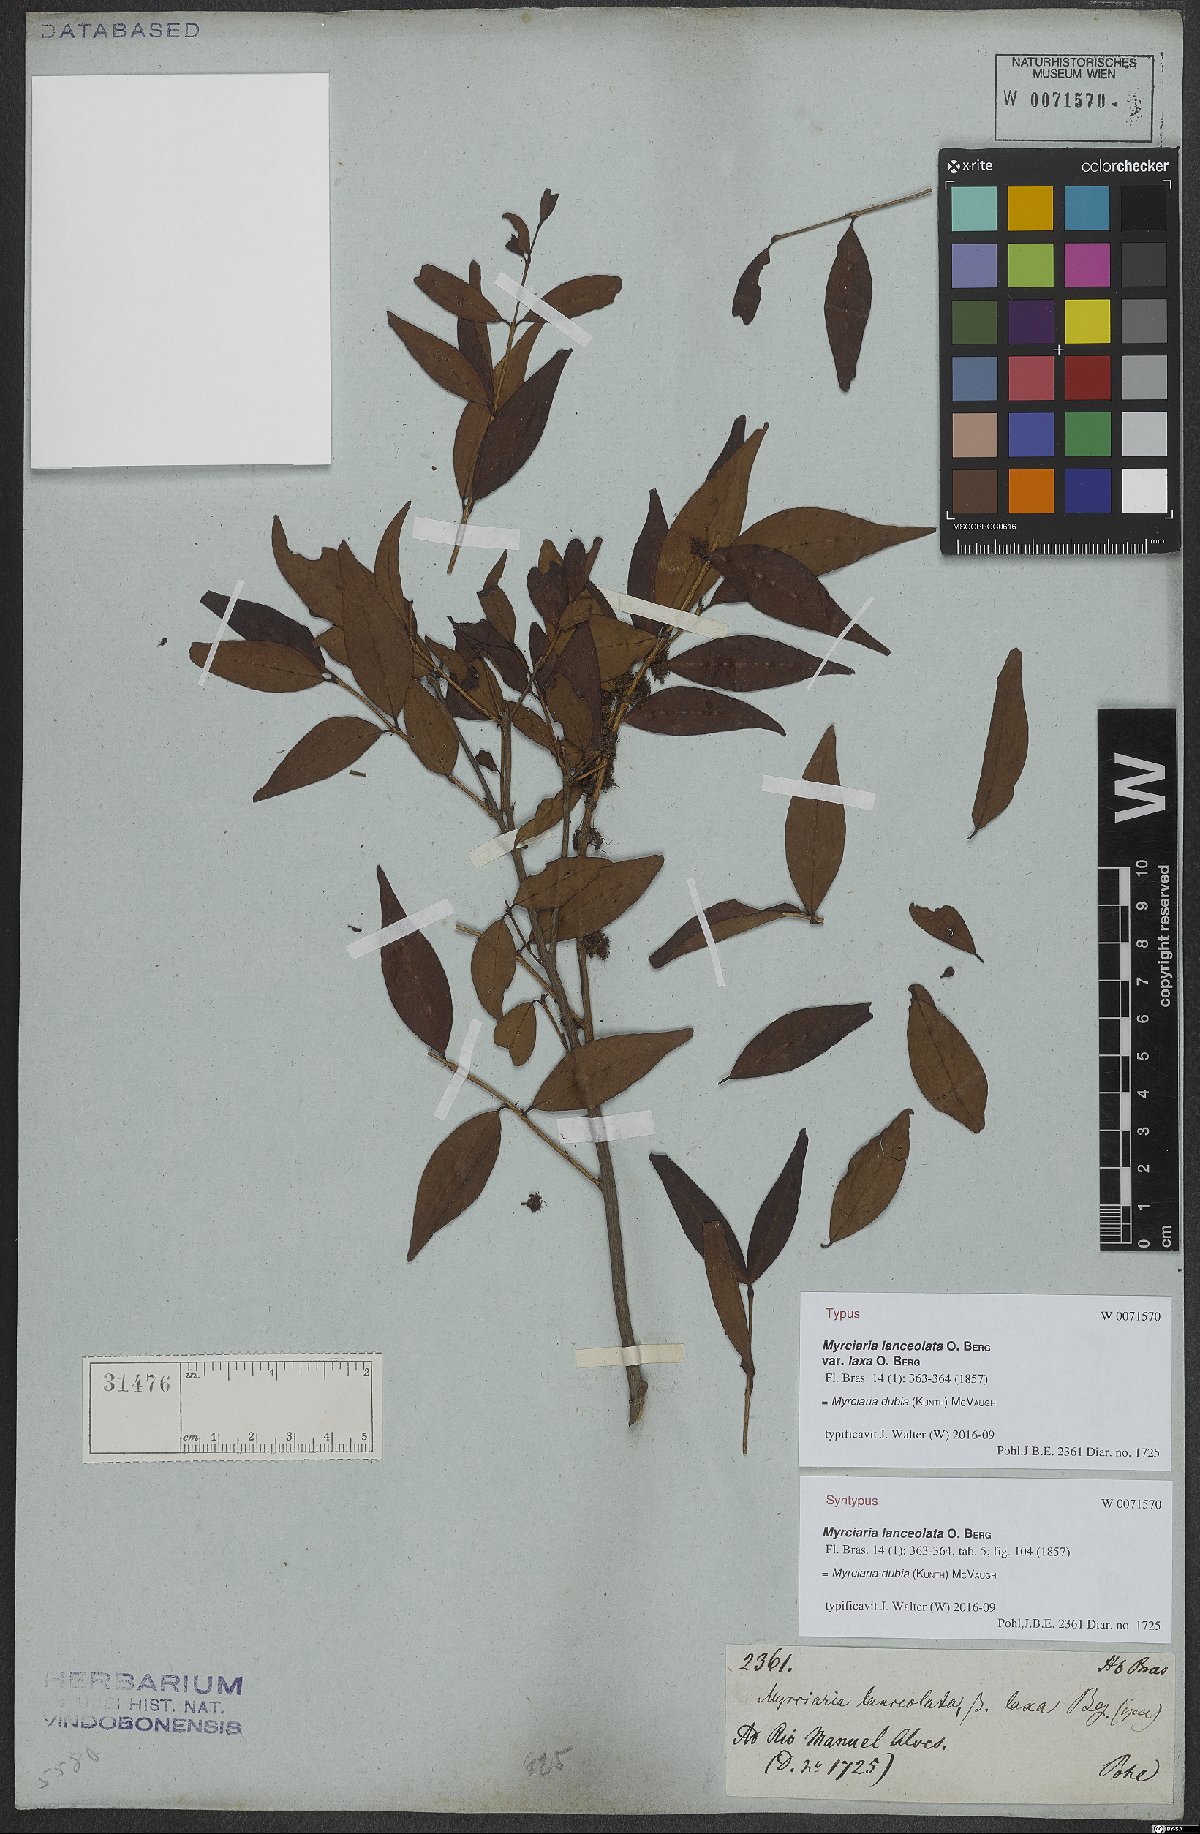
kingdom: Plantae
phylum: Tracheophyta
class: Magnoliopsida
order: Myrtales
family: Myrtaceae
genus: Myrciaria
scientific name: Myrciaria dubia
